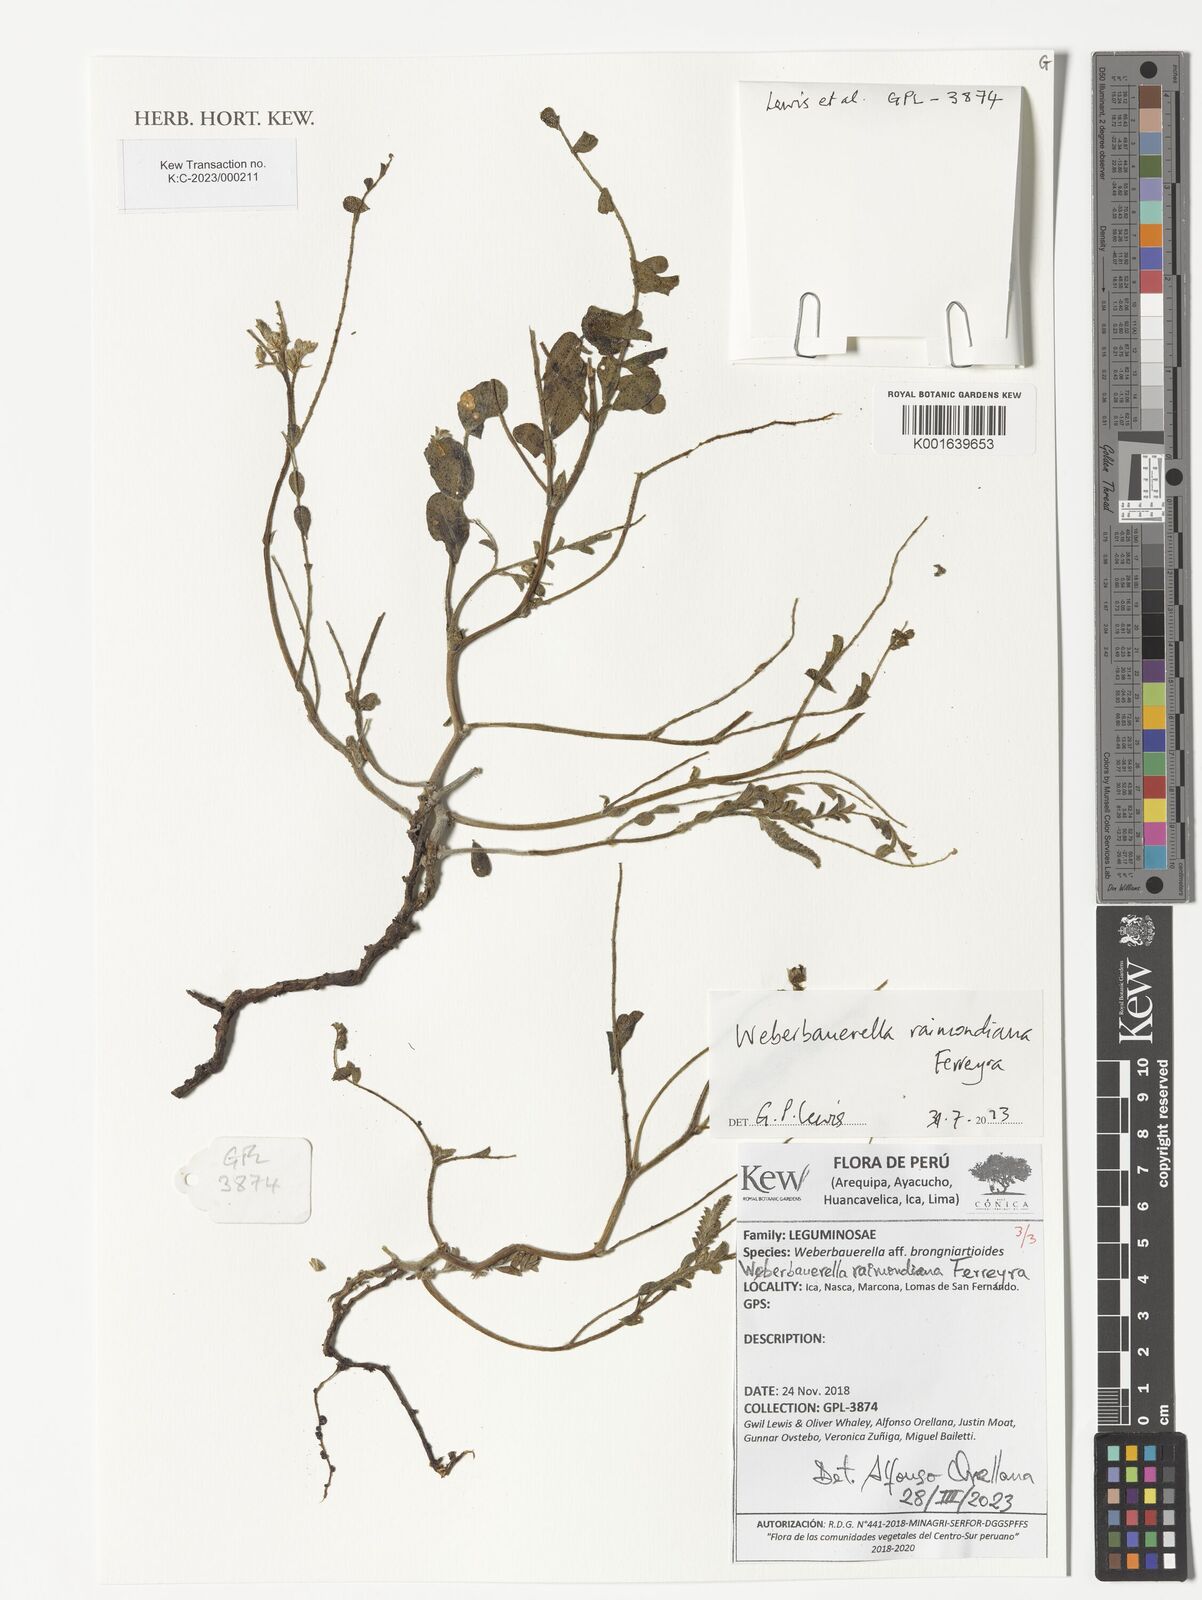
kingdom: Plantae
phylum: Tracheophyta
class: Magnoliopsida
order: Fabales
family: Fabaceae
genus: Weberbauerella
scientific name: Weberbauerella raimondiana
